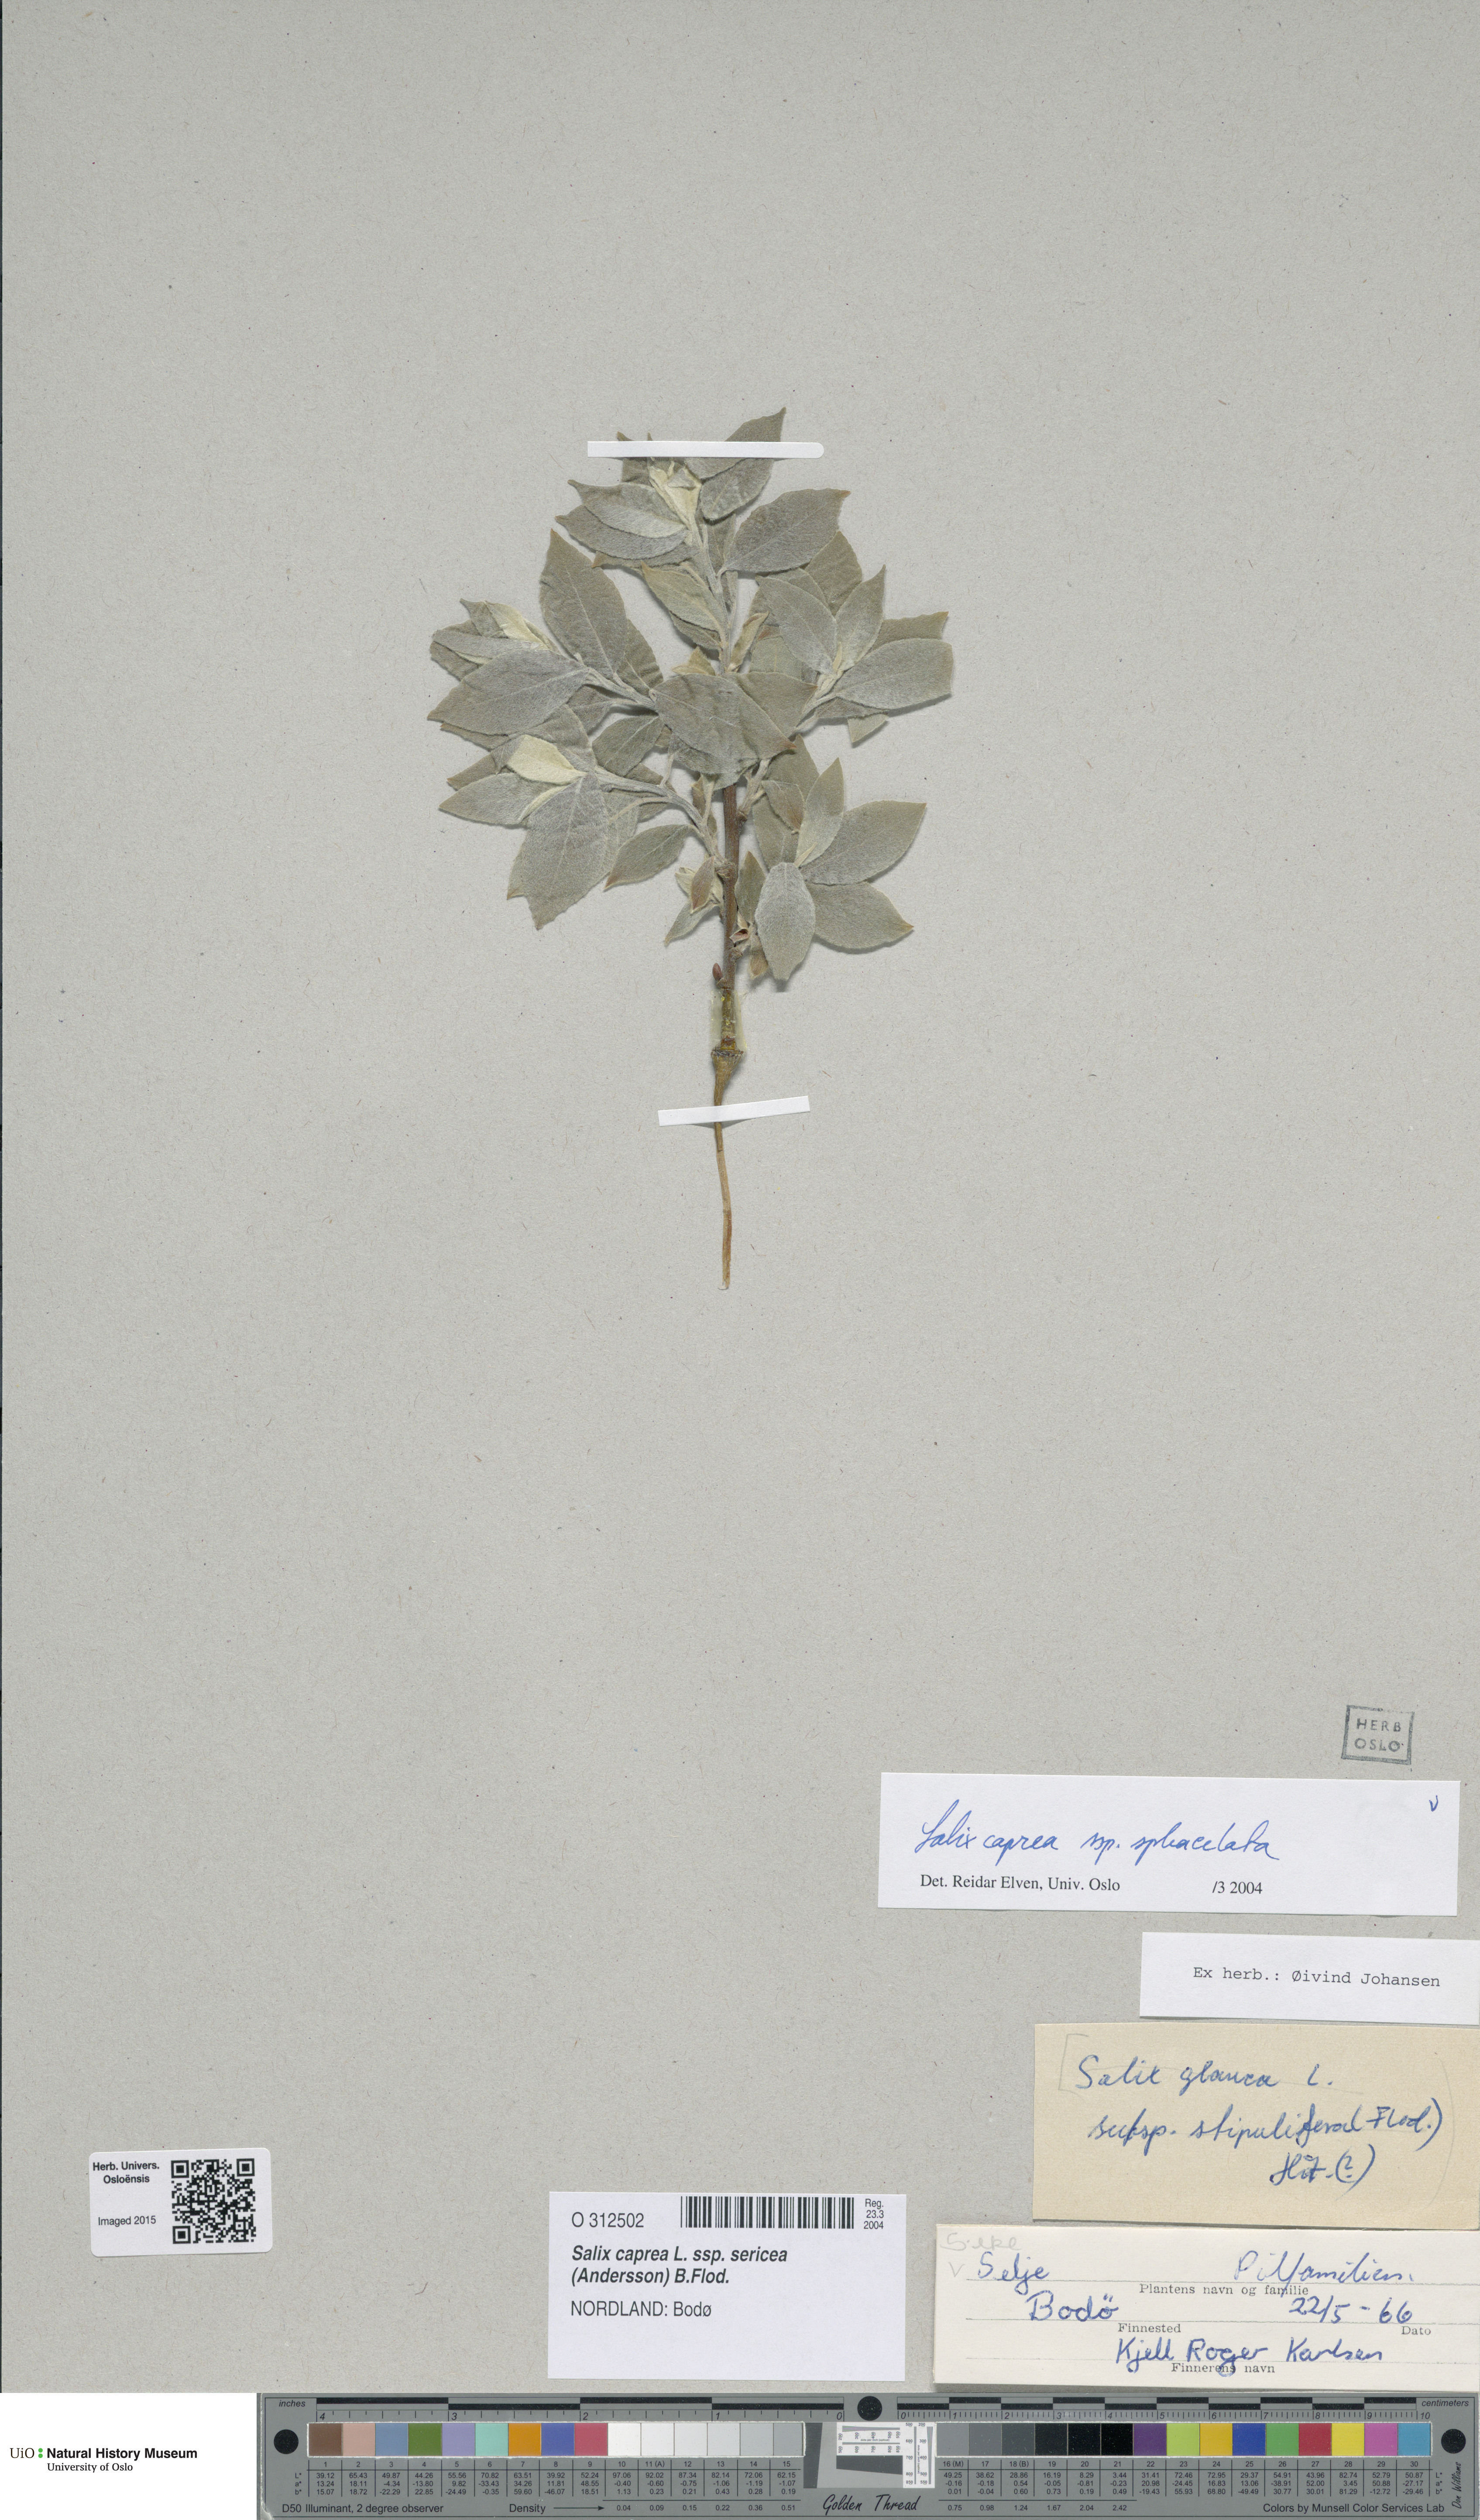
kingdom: Plantae
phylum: Tracheophyta
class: Magnoliopsida
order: Malpighiales
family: Salicaceae
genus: Salix
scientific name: Salix caprea
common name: Goat willow
